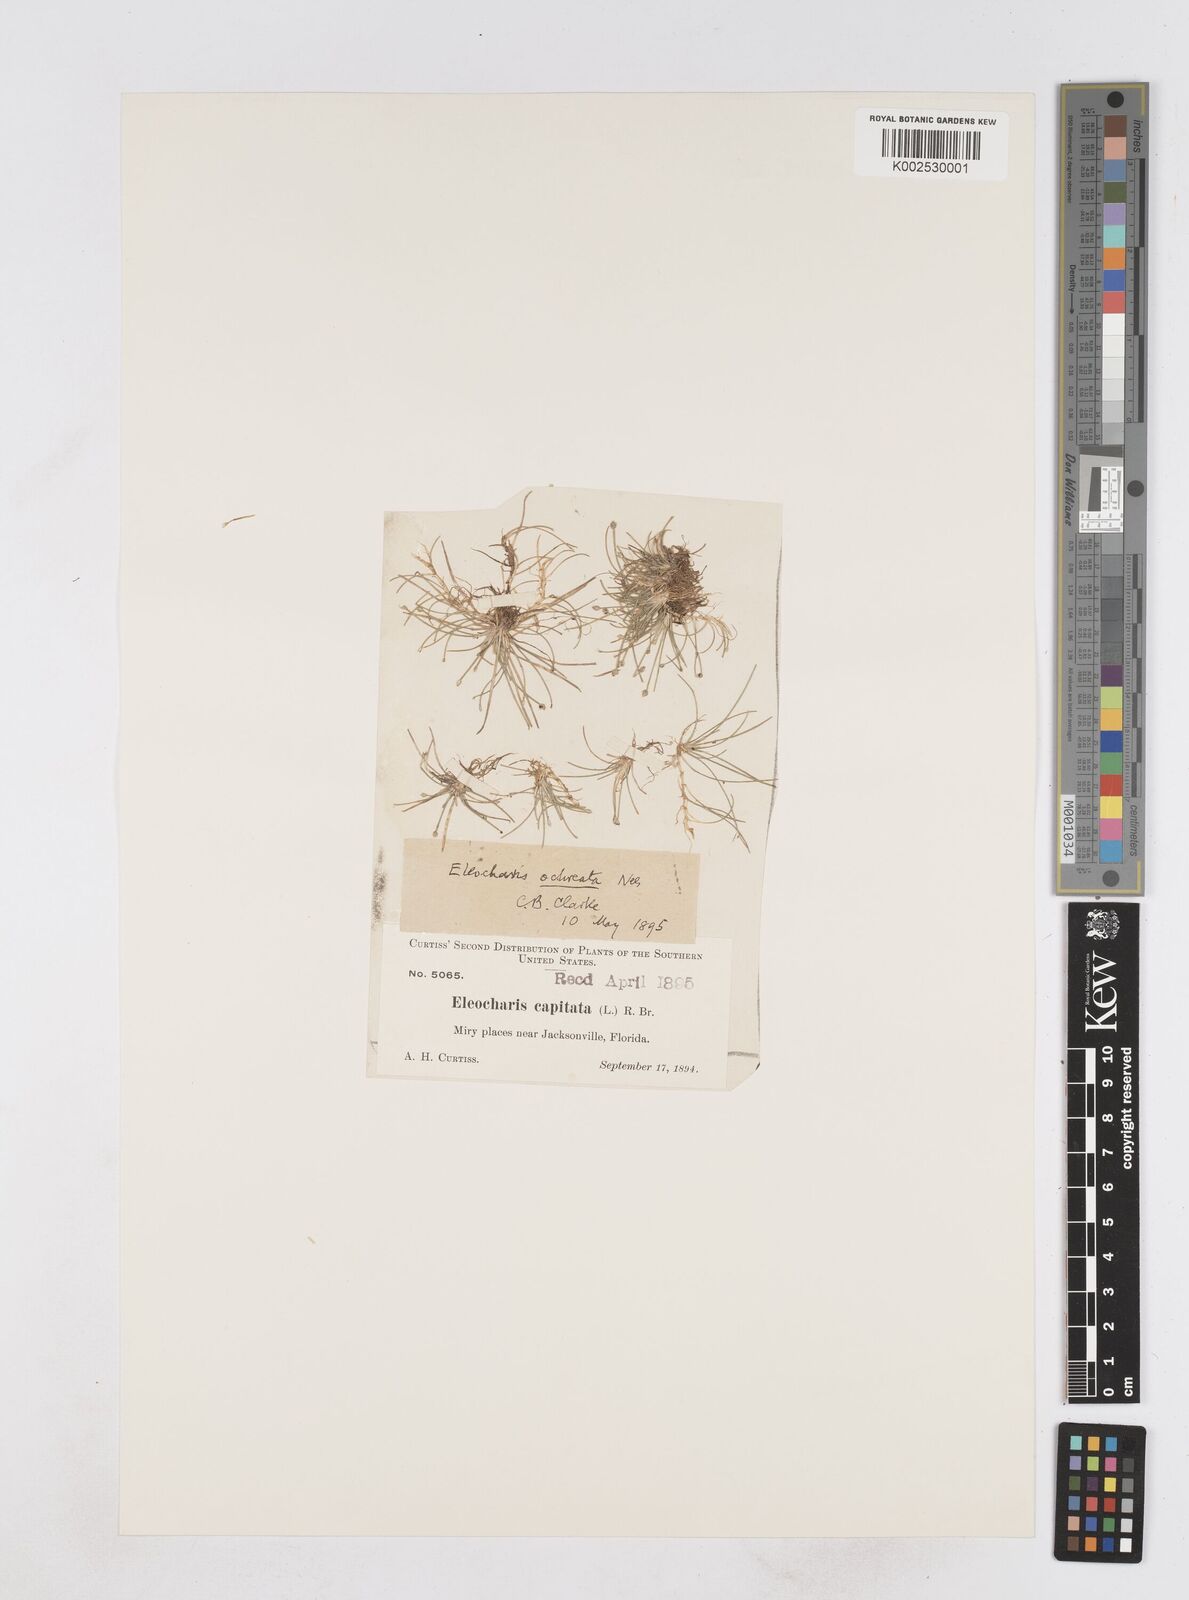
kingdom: Plantae
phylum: Tracheophyta
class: Liliopsida
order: Poales
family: Cyperaceae
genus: Eleocharis
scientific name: Eleocharis flavescens
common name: Yellow spikerush
